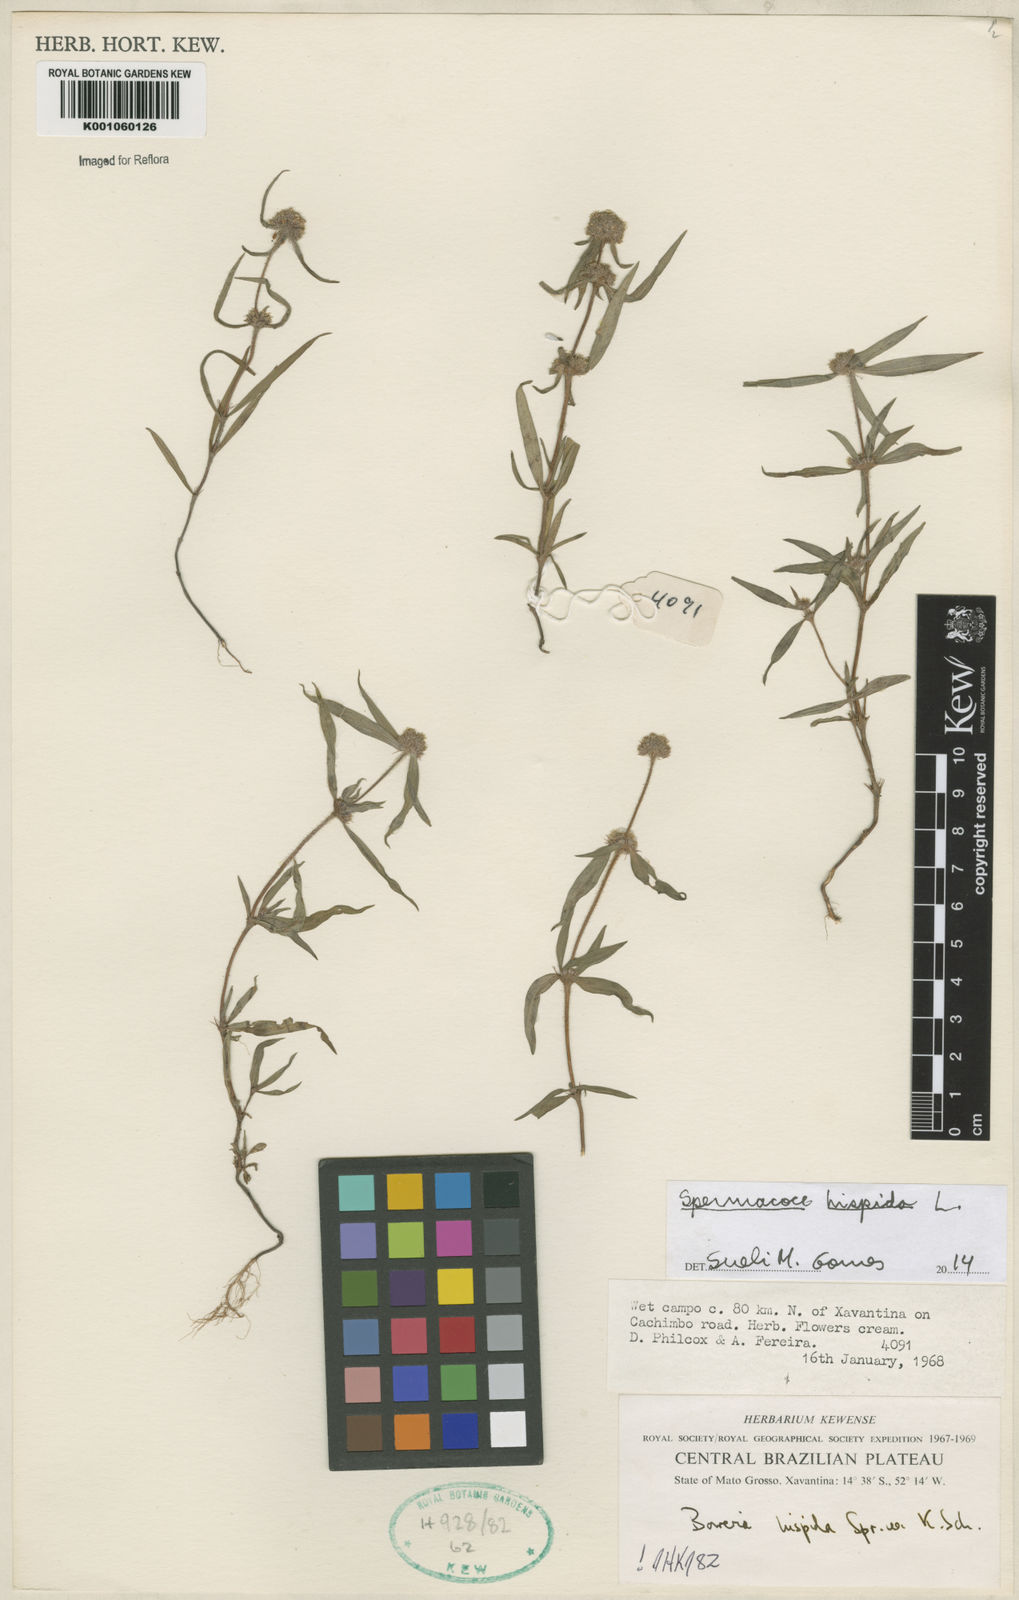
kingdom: Plantae
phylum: Tracheophyta
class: Magnoliopsida
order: Gentianales
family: Rubiaceae
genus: Spermacoce
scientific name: Spermacoce hispida
